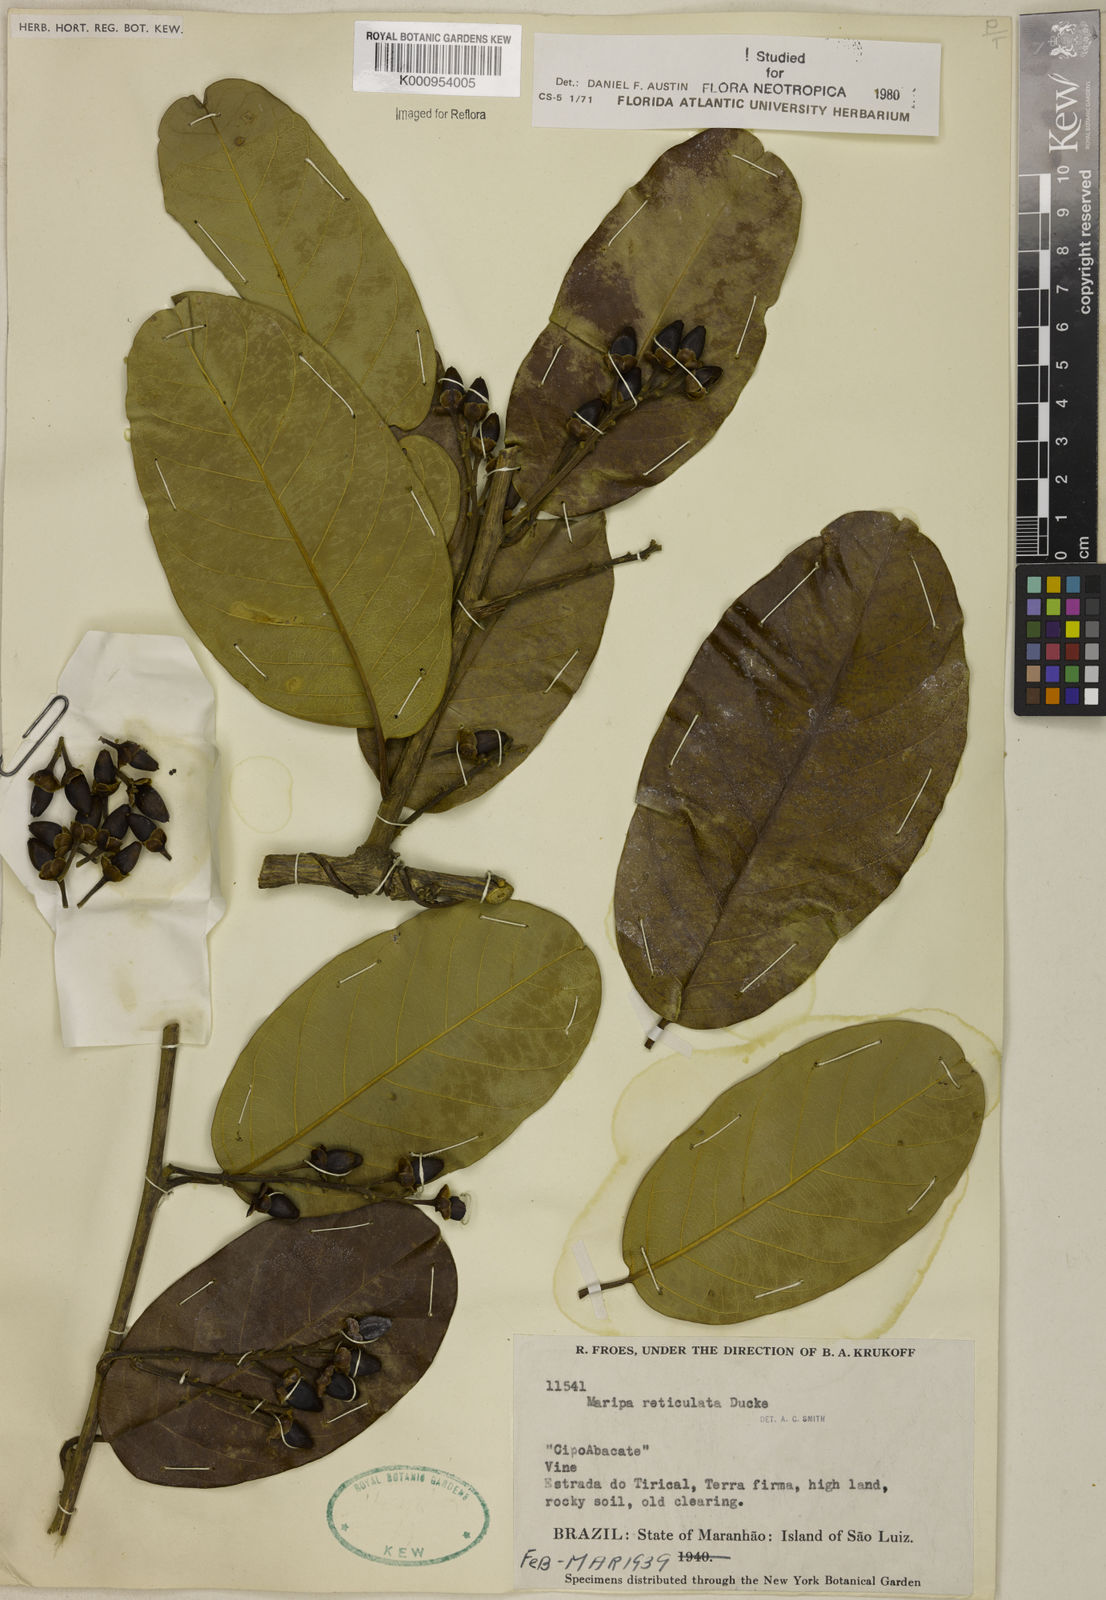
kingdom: Plantae
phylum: Tracheophyta
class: Magnoliopsida
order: Solanales
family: Convolvulaceae
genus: Maripa
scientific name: Maripa reticulata
